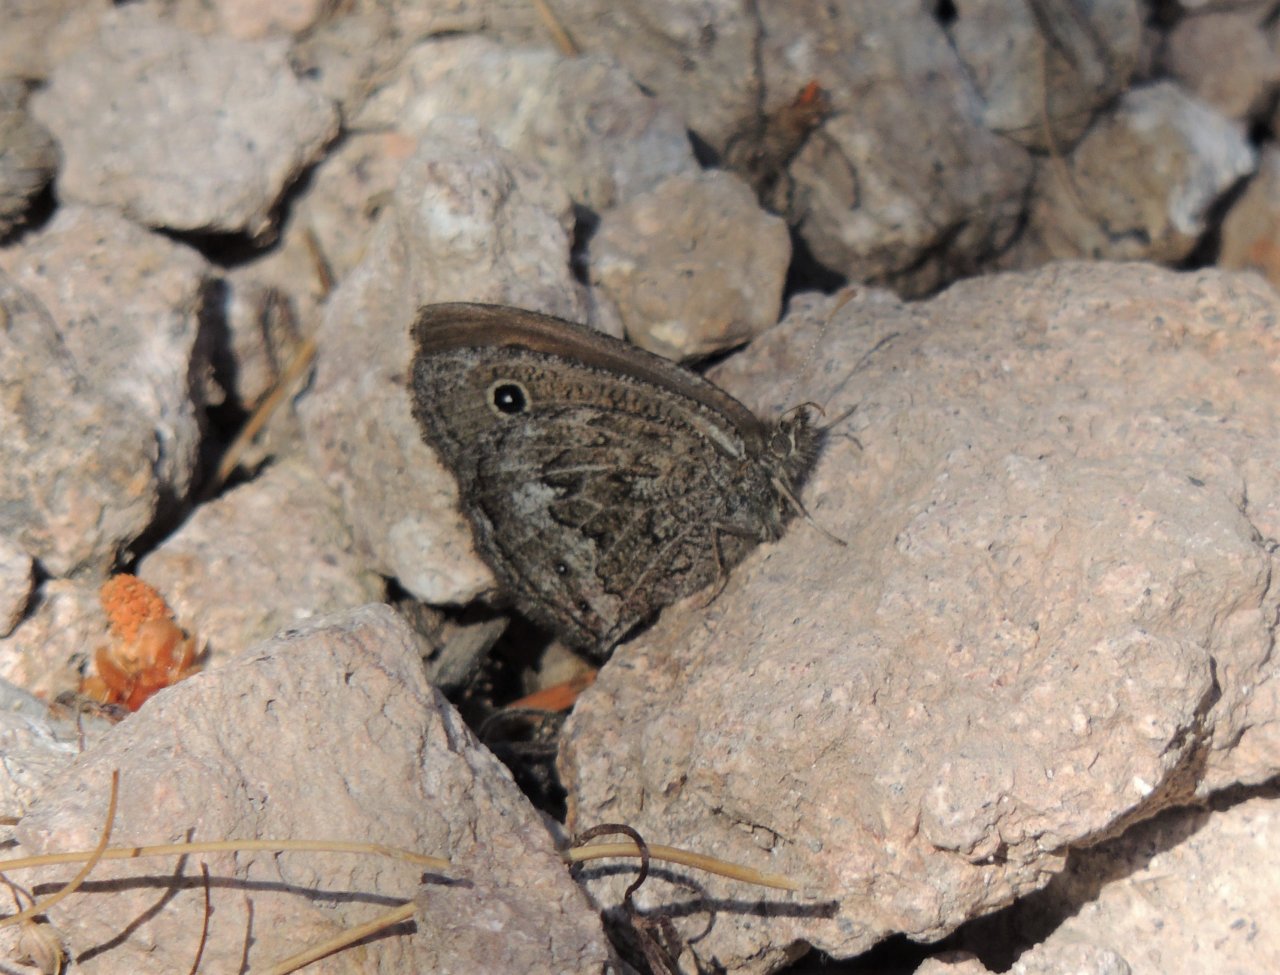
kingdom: Animalia
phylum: Arthropoda
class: Insecta
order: Lepidoptera
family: Nymphalidae
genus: Cercyonis
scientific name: Cercyonis oetus
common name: Small Wood-Nymph
